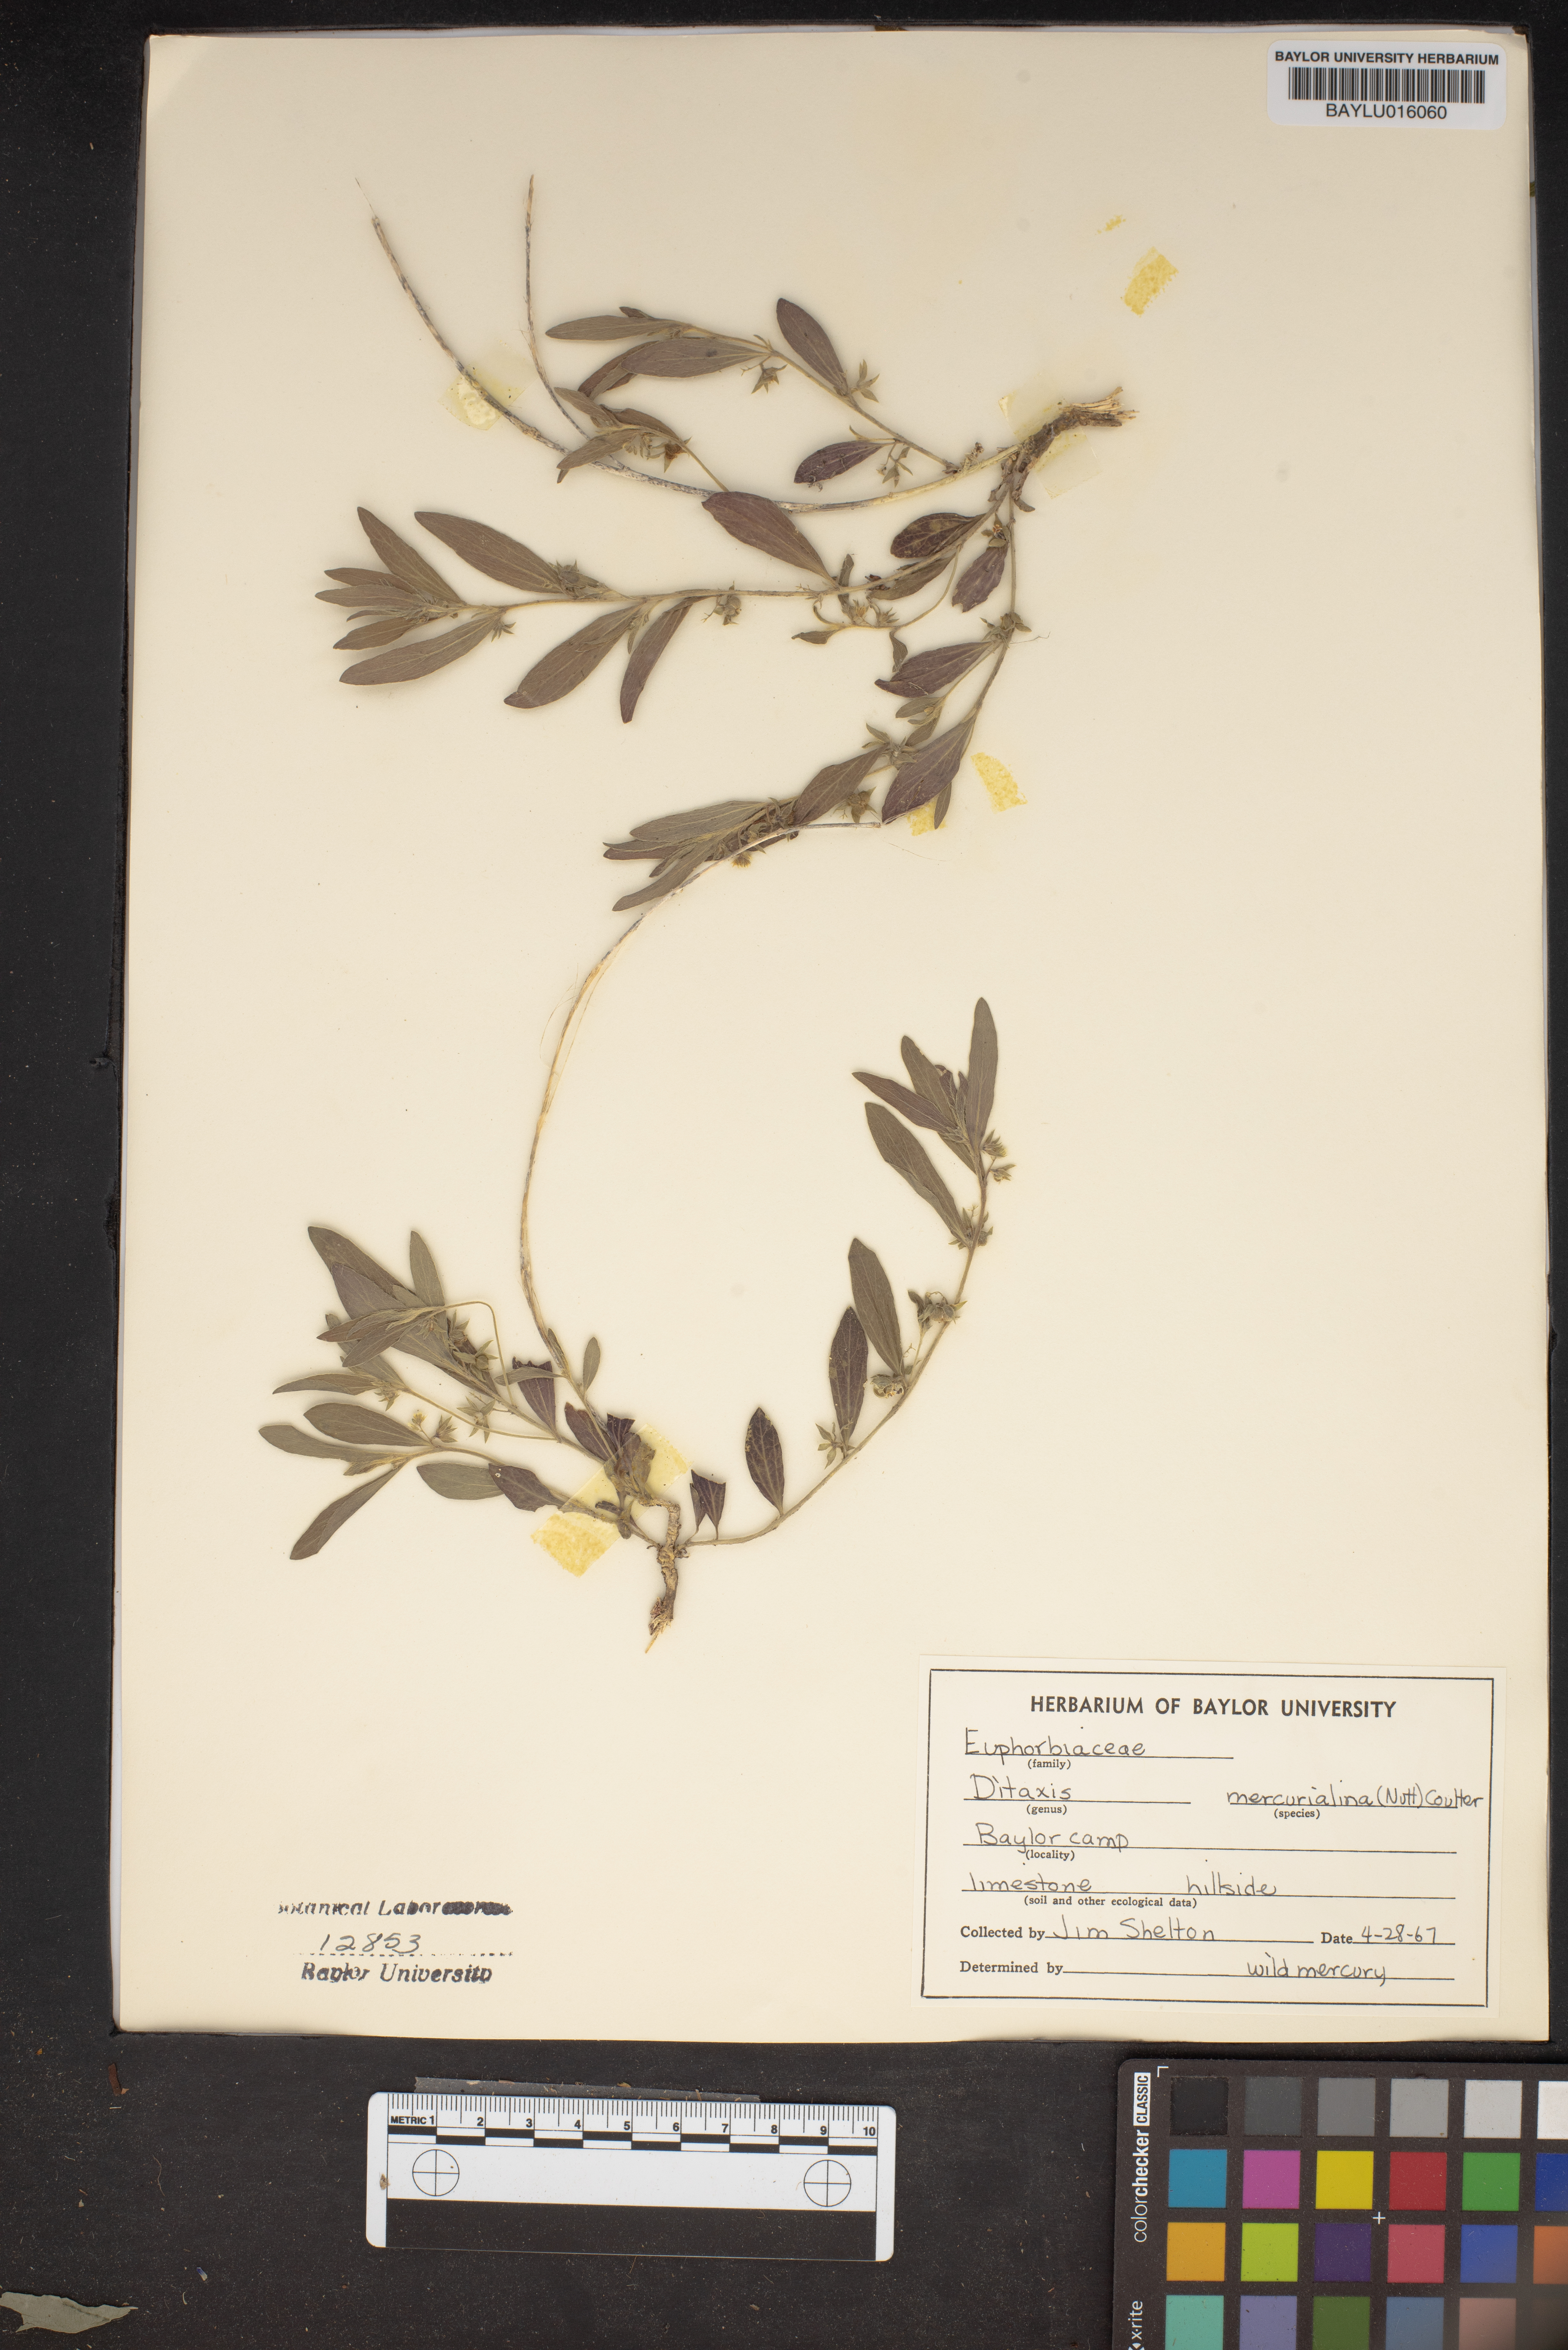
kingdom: Plantae
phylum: Tracheophyta
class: Magnoliopsida
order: Malpighiales
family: Euphorbiaceae
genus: Ditaxis
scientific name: Ditaxis mercurialina
